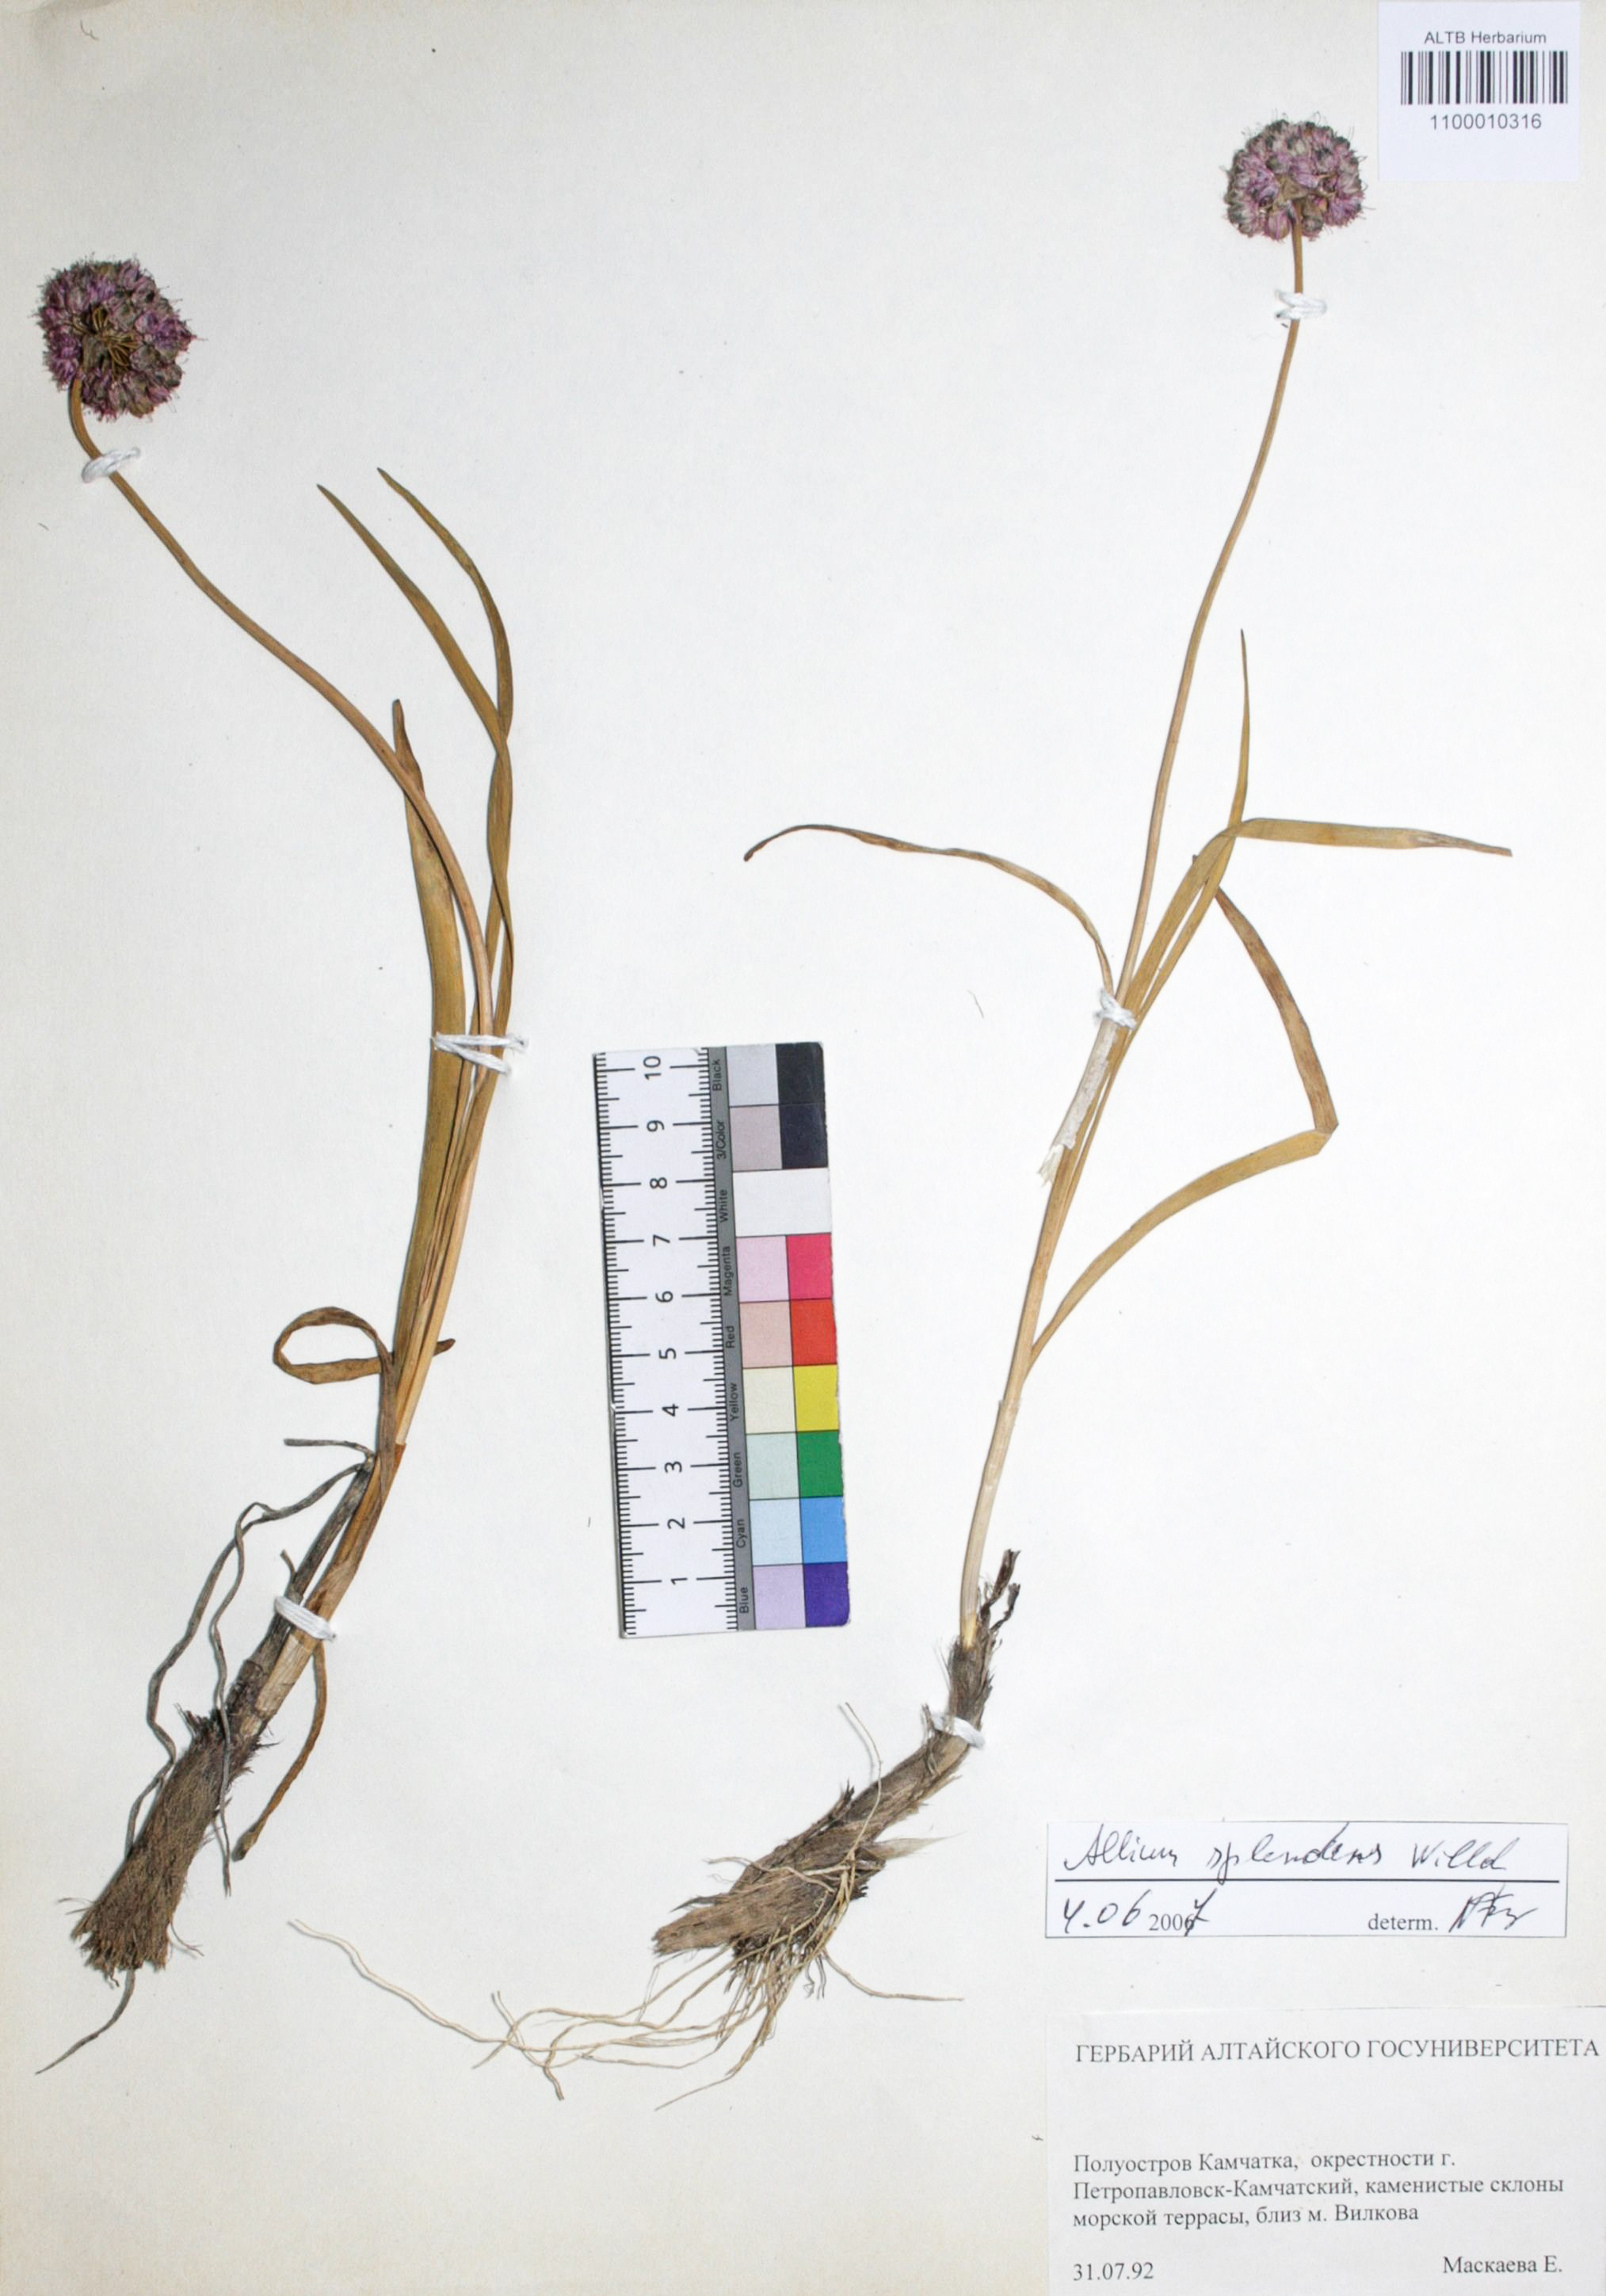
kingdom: Plantae
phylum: Tracheophyta
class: Liliopsida
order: Asparagales
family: Amaryllidaceae
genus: Allium
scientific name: Allium splendens
